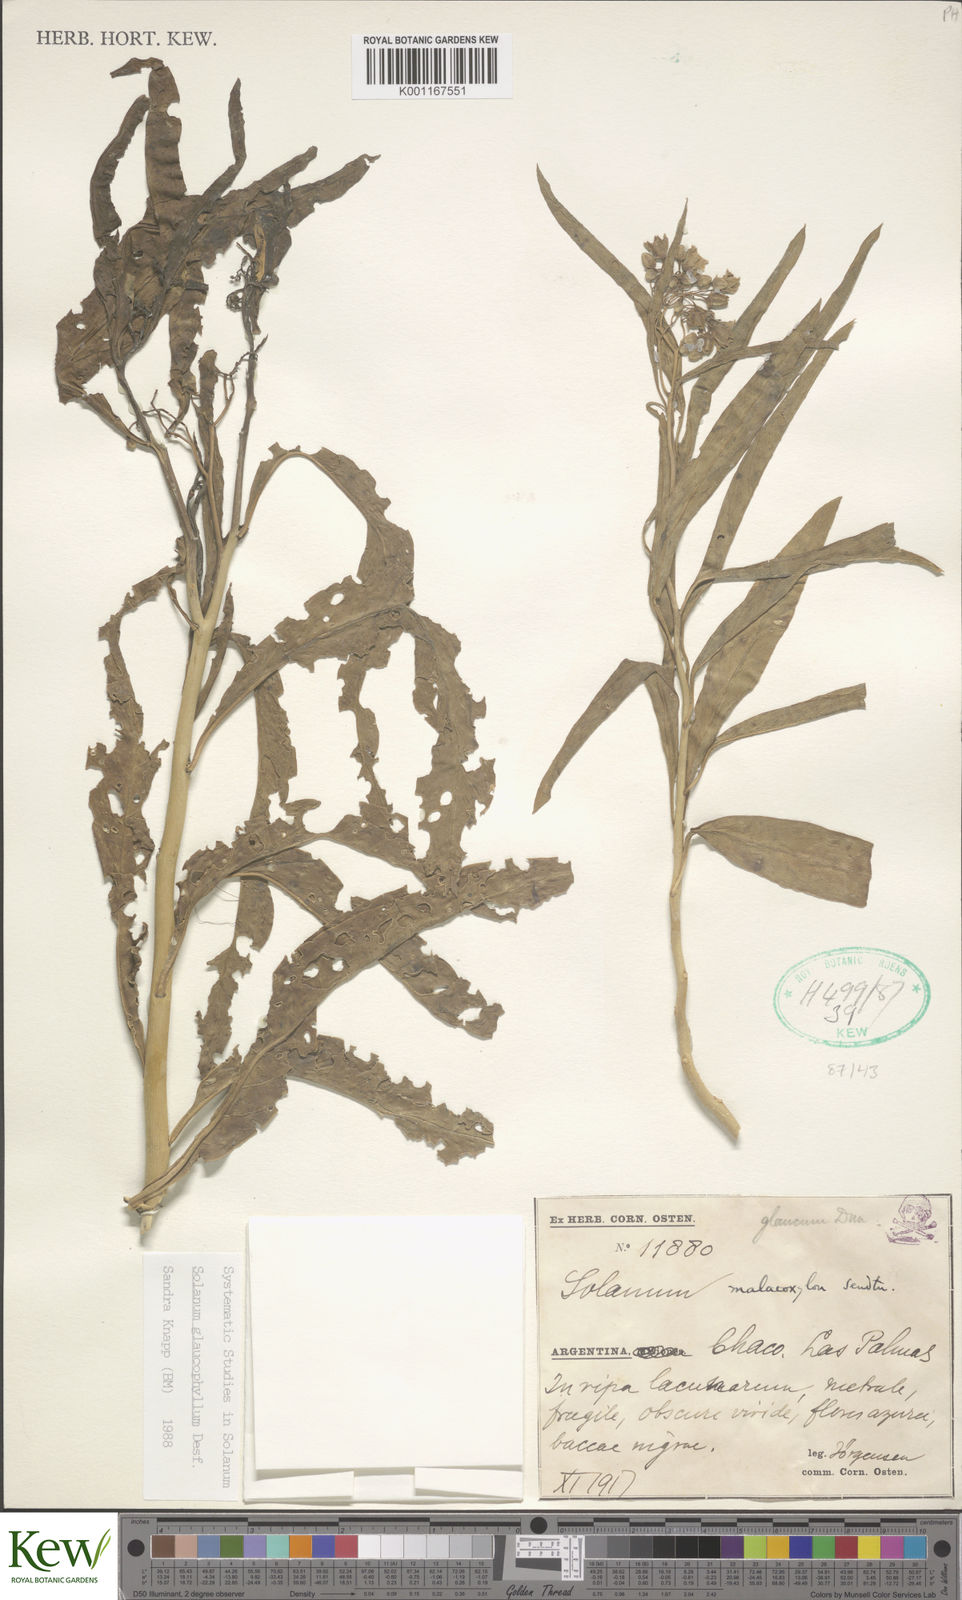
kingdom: Plantae
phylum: Tracheophyta
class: Magnoliopsida
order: Solanales
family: Solanaceae
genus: Solanum
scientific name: Solanum glaucophyllum
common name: Waxyleaf nightshade
